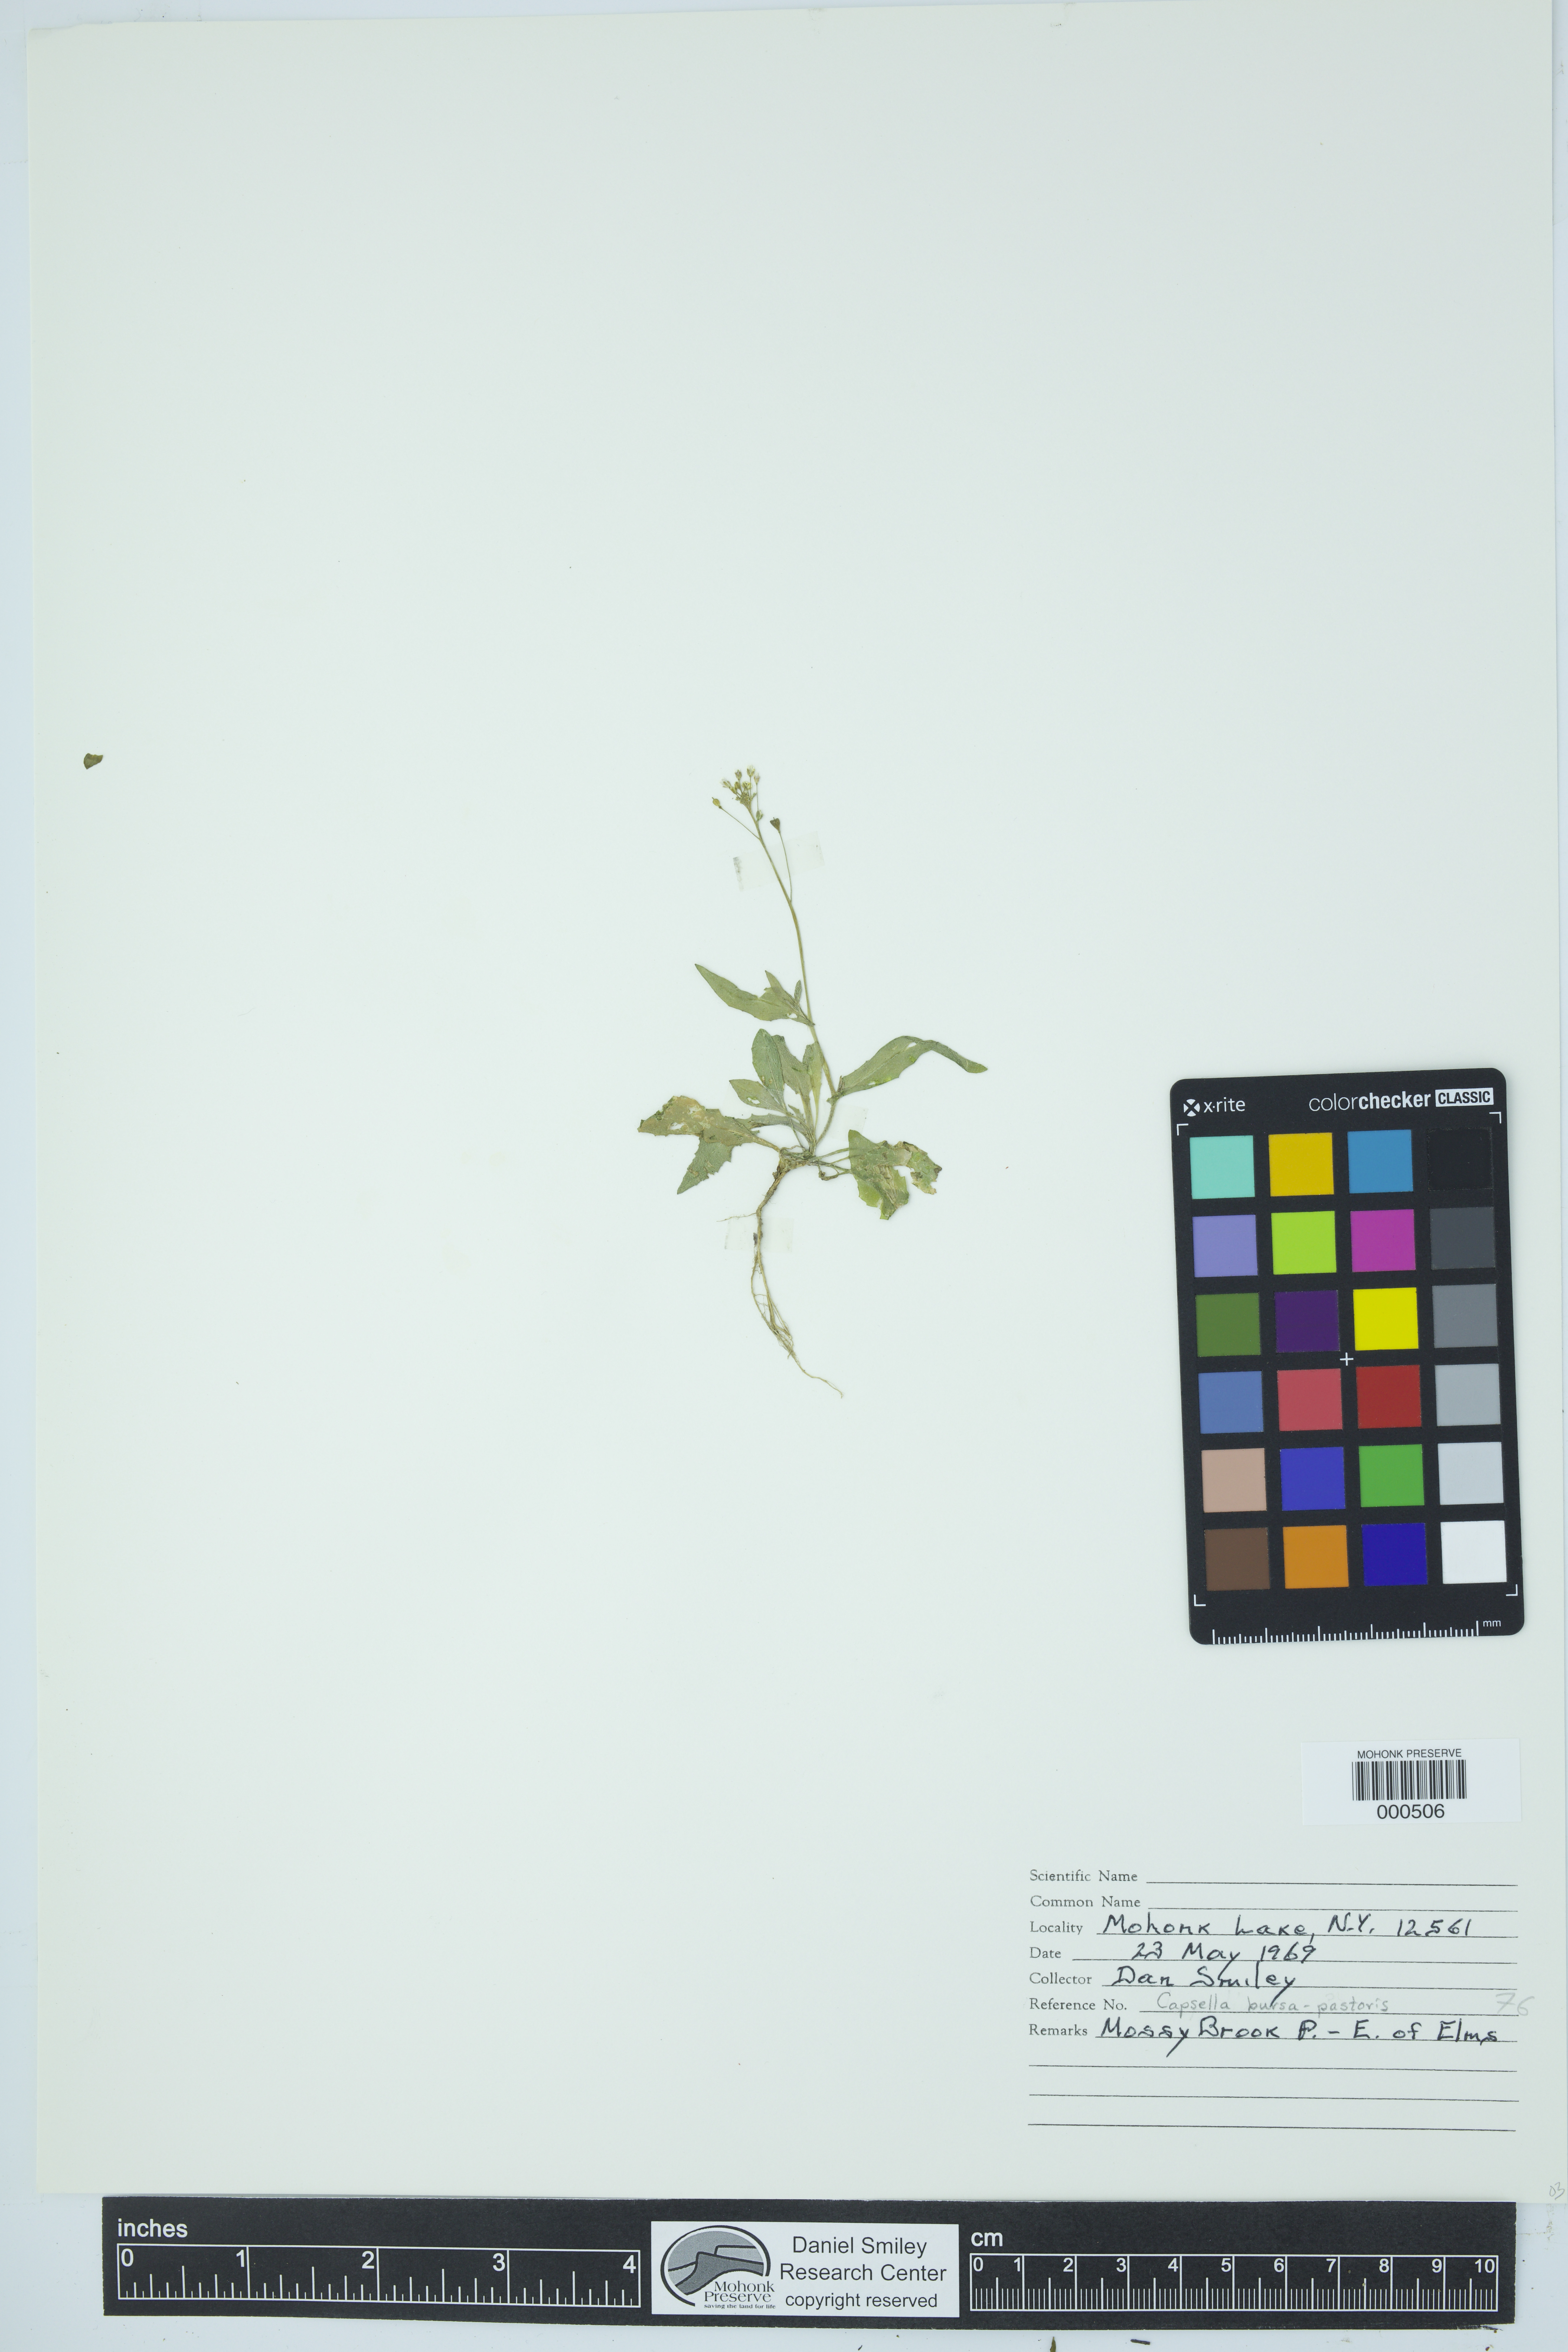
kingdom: Plantae
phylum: Tracheophyta
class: Magnoliopsida
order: Brassicales
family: Brassicaceae
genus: Capsella
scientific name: Capsella bursa-pastoris
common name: Shepherd's purse
